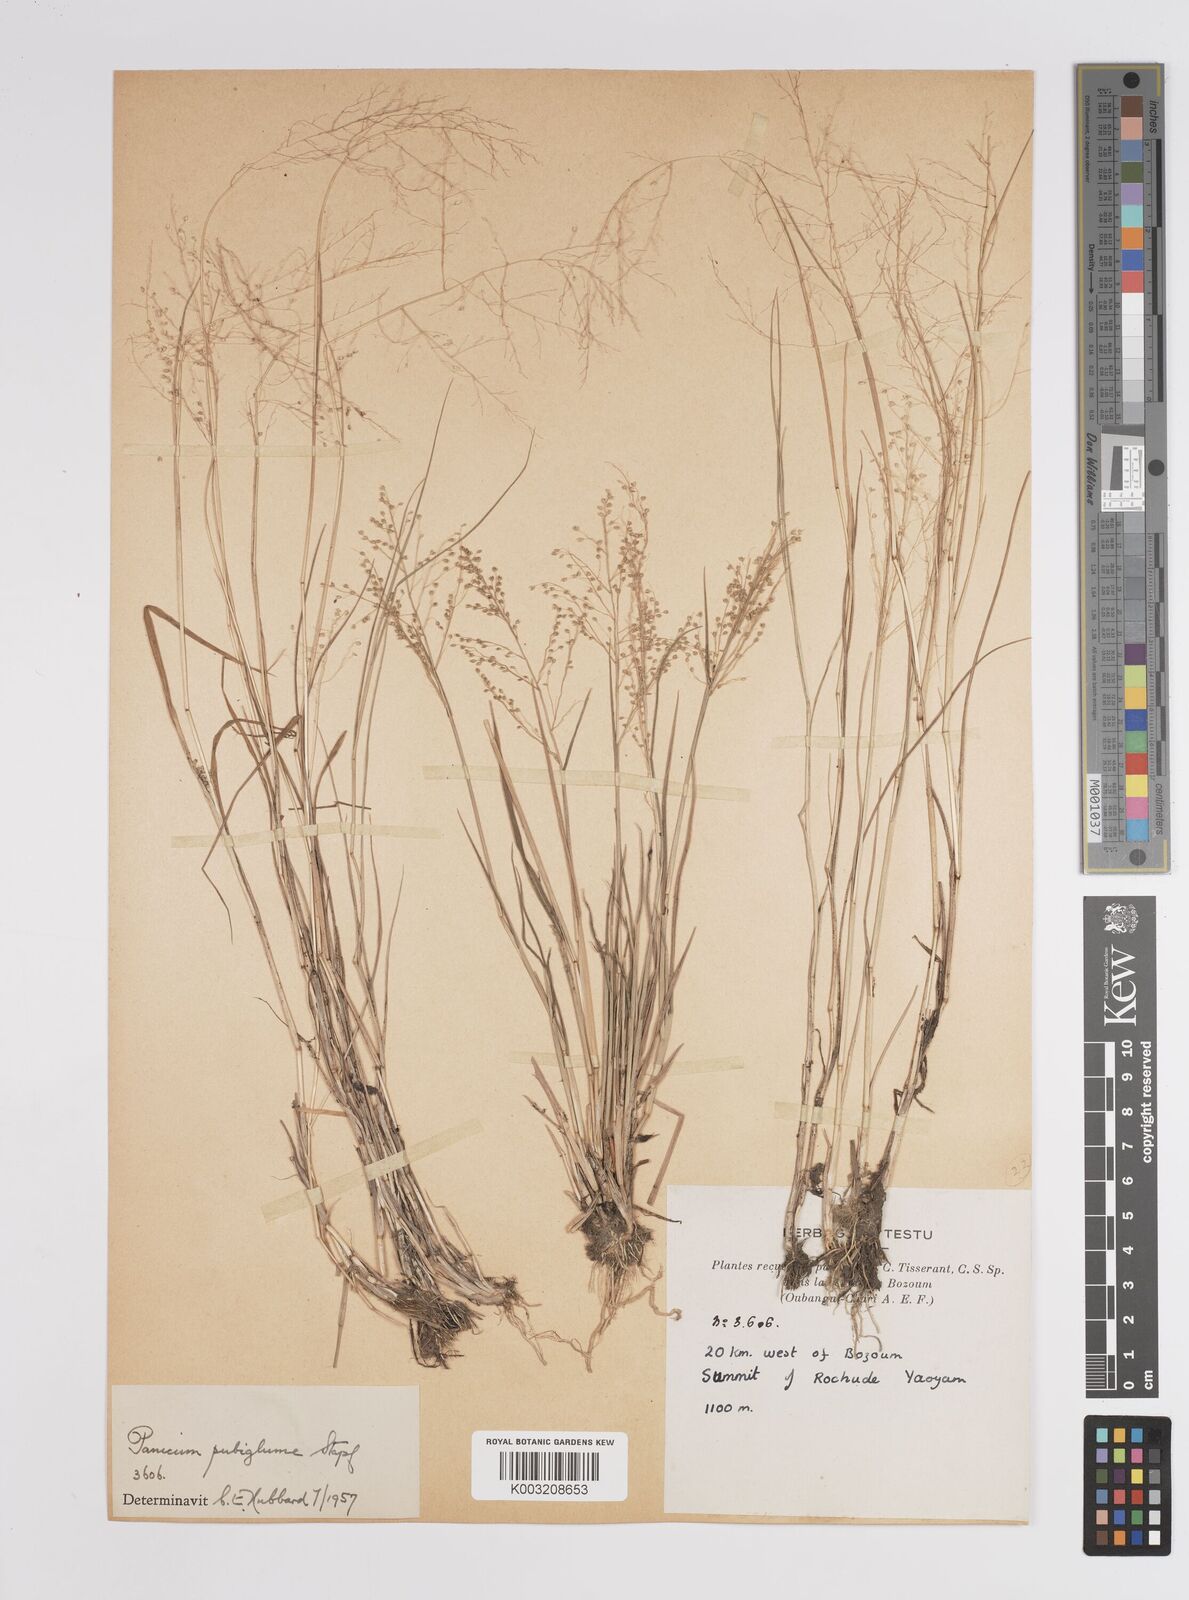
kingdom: Plantae
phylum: Tracheophyta
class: Liliopsida
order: Poales
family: Poaceae
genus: Panicum
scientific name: Panicum
